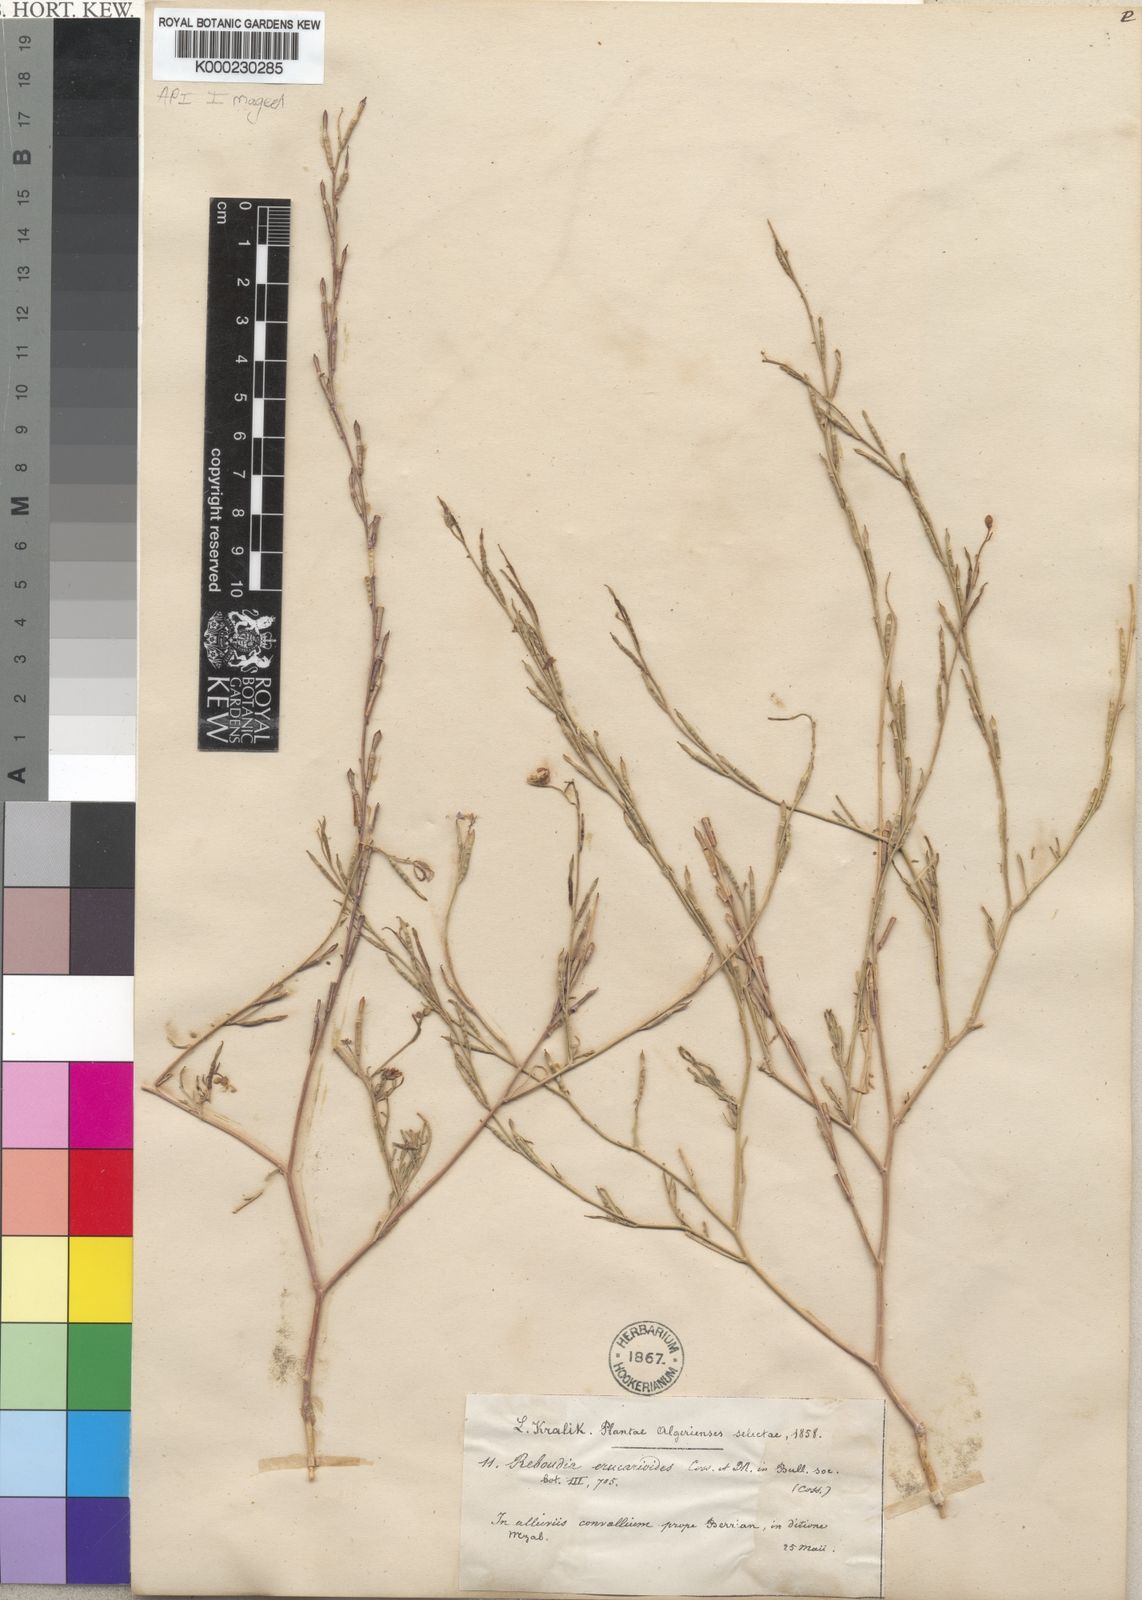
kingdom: Plantae
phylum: Tracheophyta
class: Magnoliopsida
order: Brassicales
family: Brassicaceae
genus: Erucaria
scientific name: Erucaria erucarioides
